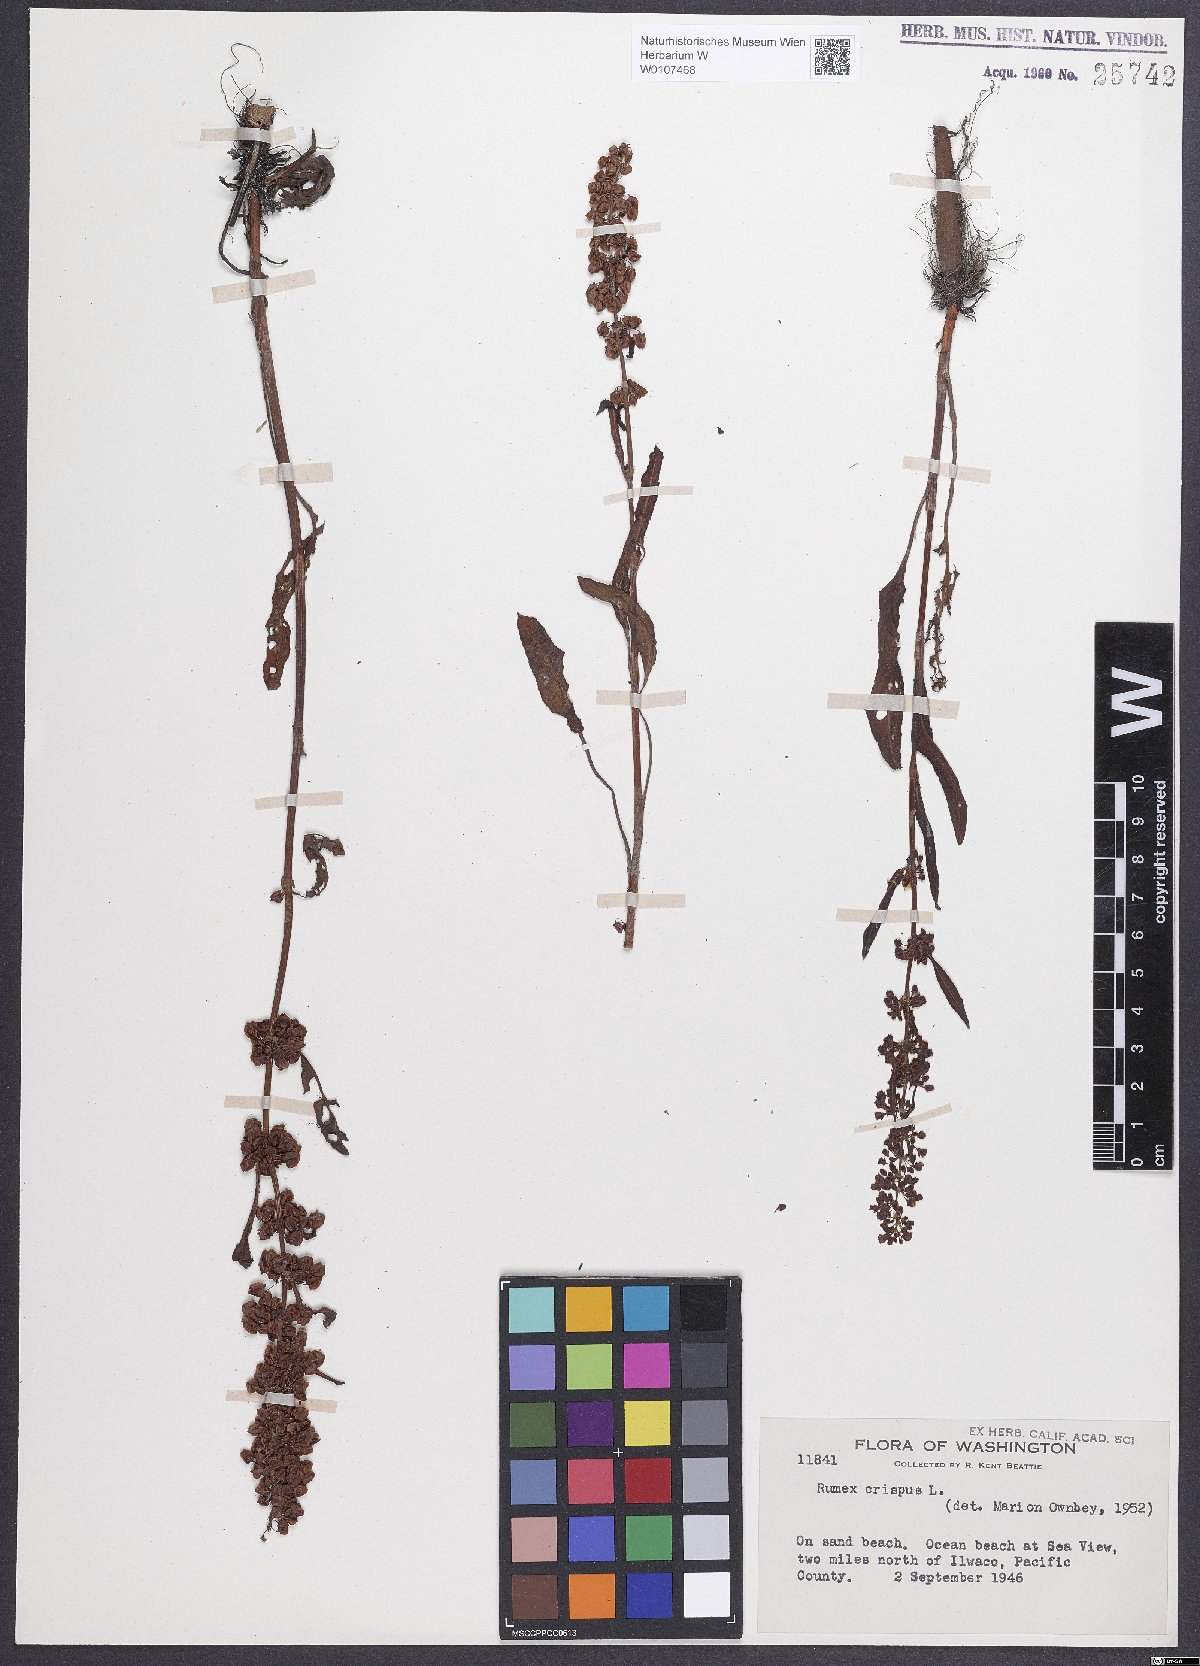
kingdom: Plantae
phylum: Tracheophyta
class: Magnoliopsida
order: Caryophyllales
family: Polygonaceae
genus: Rumex
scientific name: Rumex crispus
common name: Curled dock
